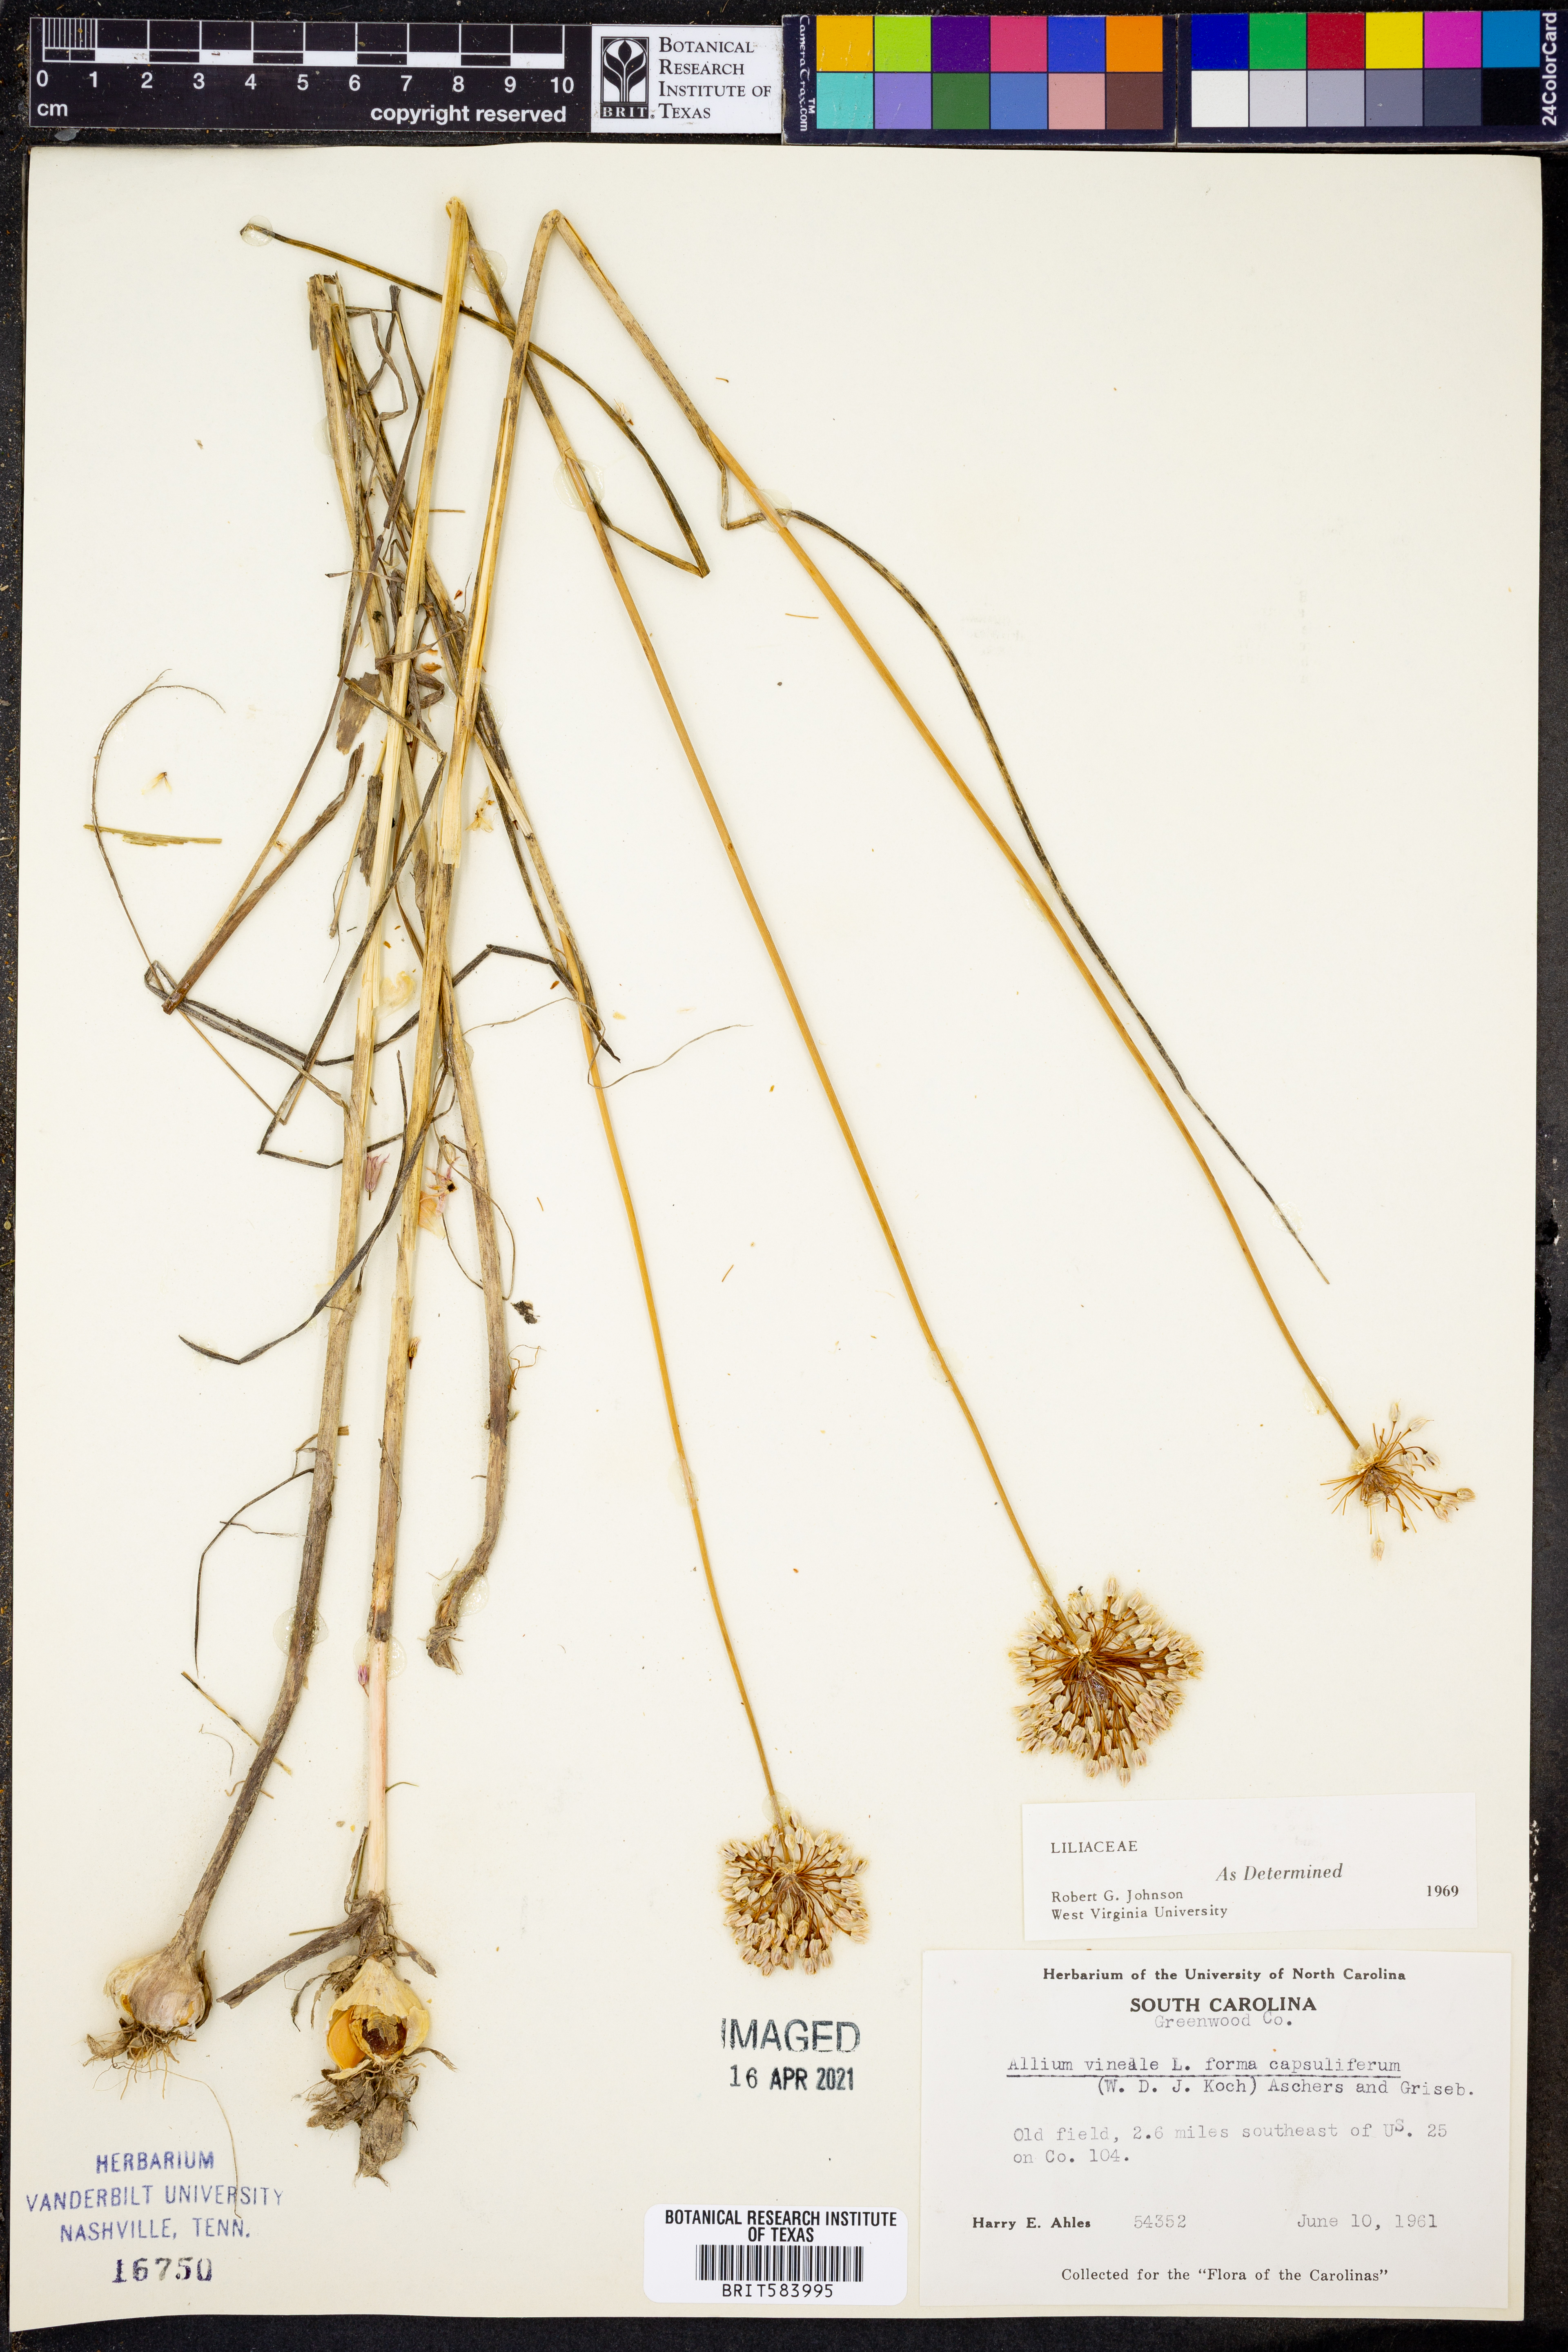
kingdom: Plantae
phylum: Tracheophyta
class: Liliopsida
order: Asparagales
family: Amaryllidaceae
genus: Allium
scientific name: Allium vineale
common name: Crow garlic
